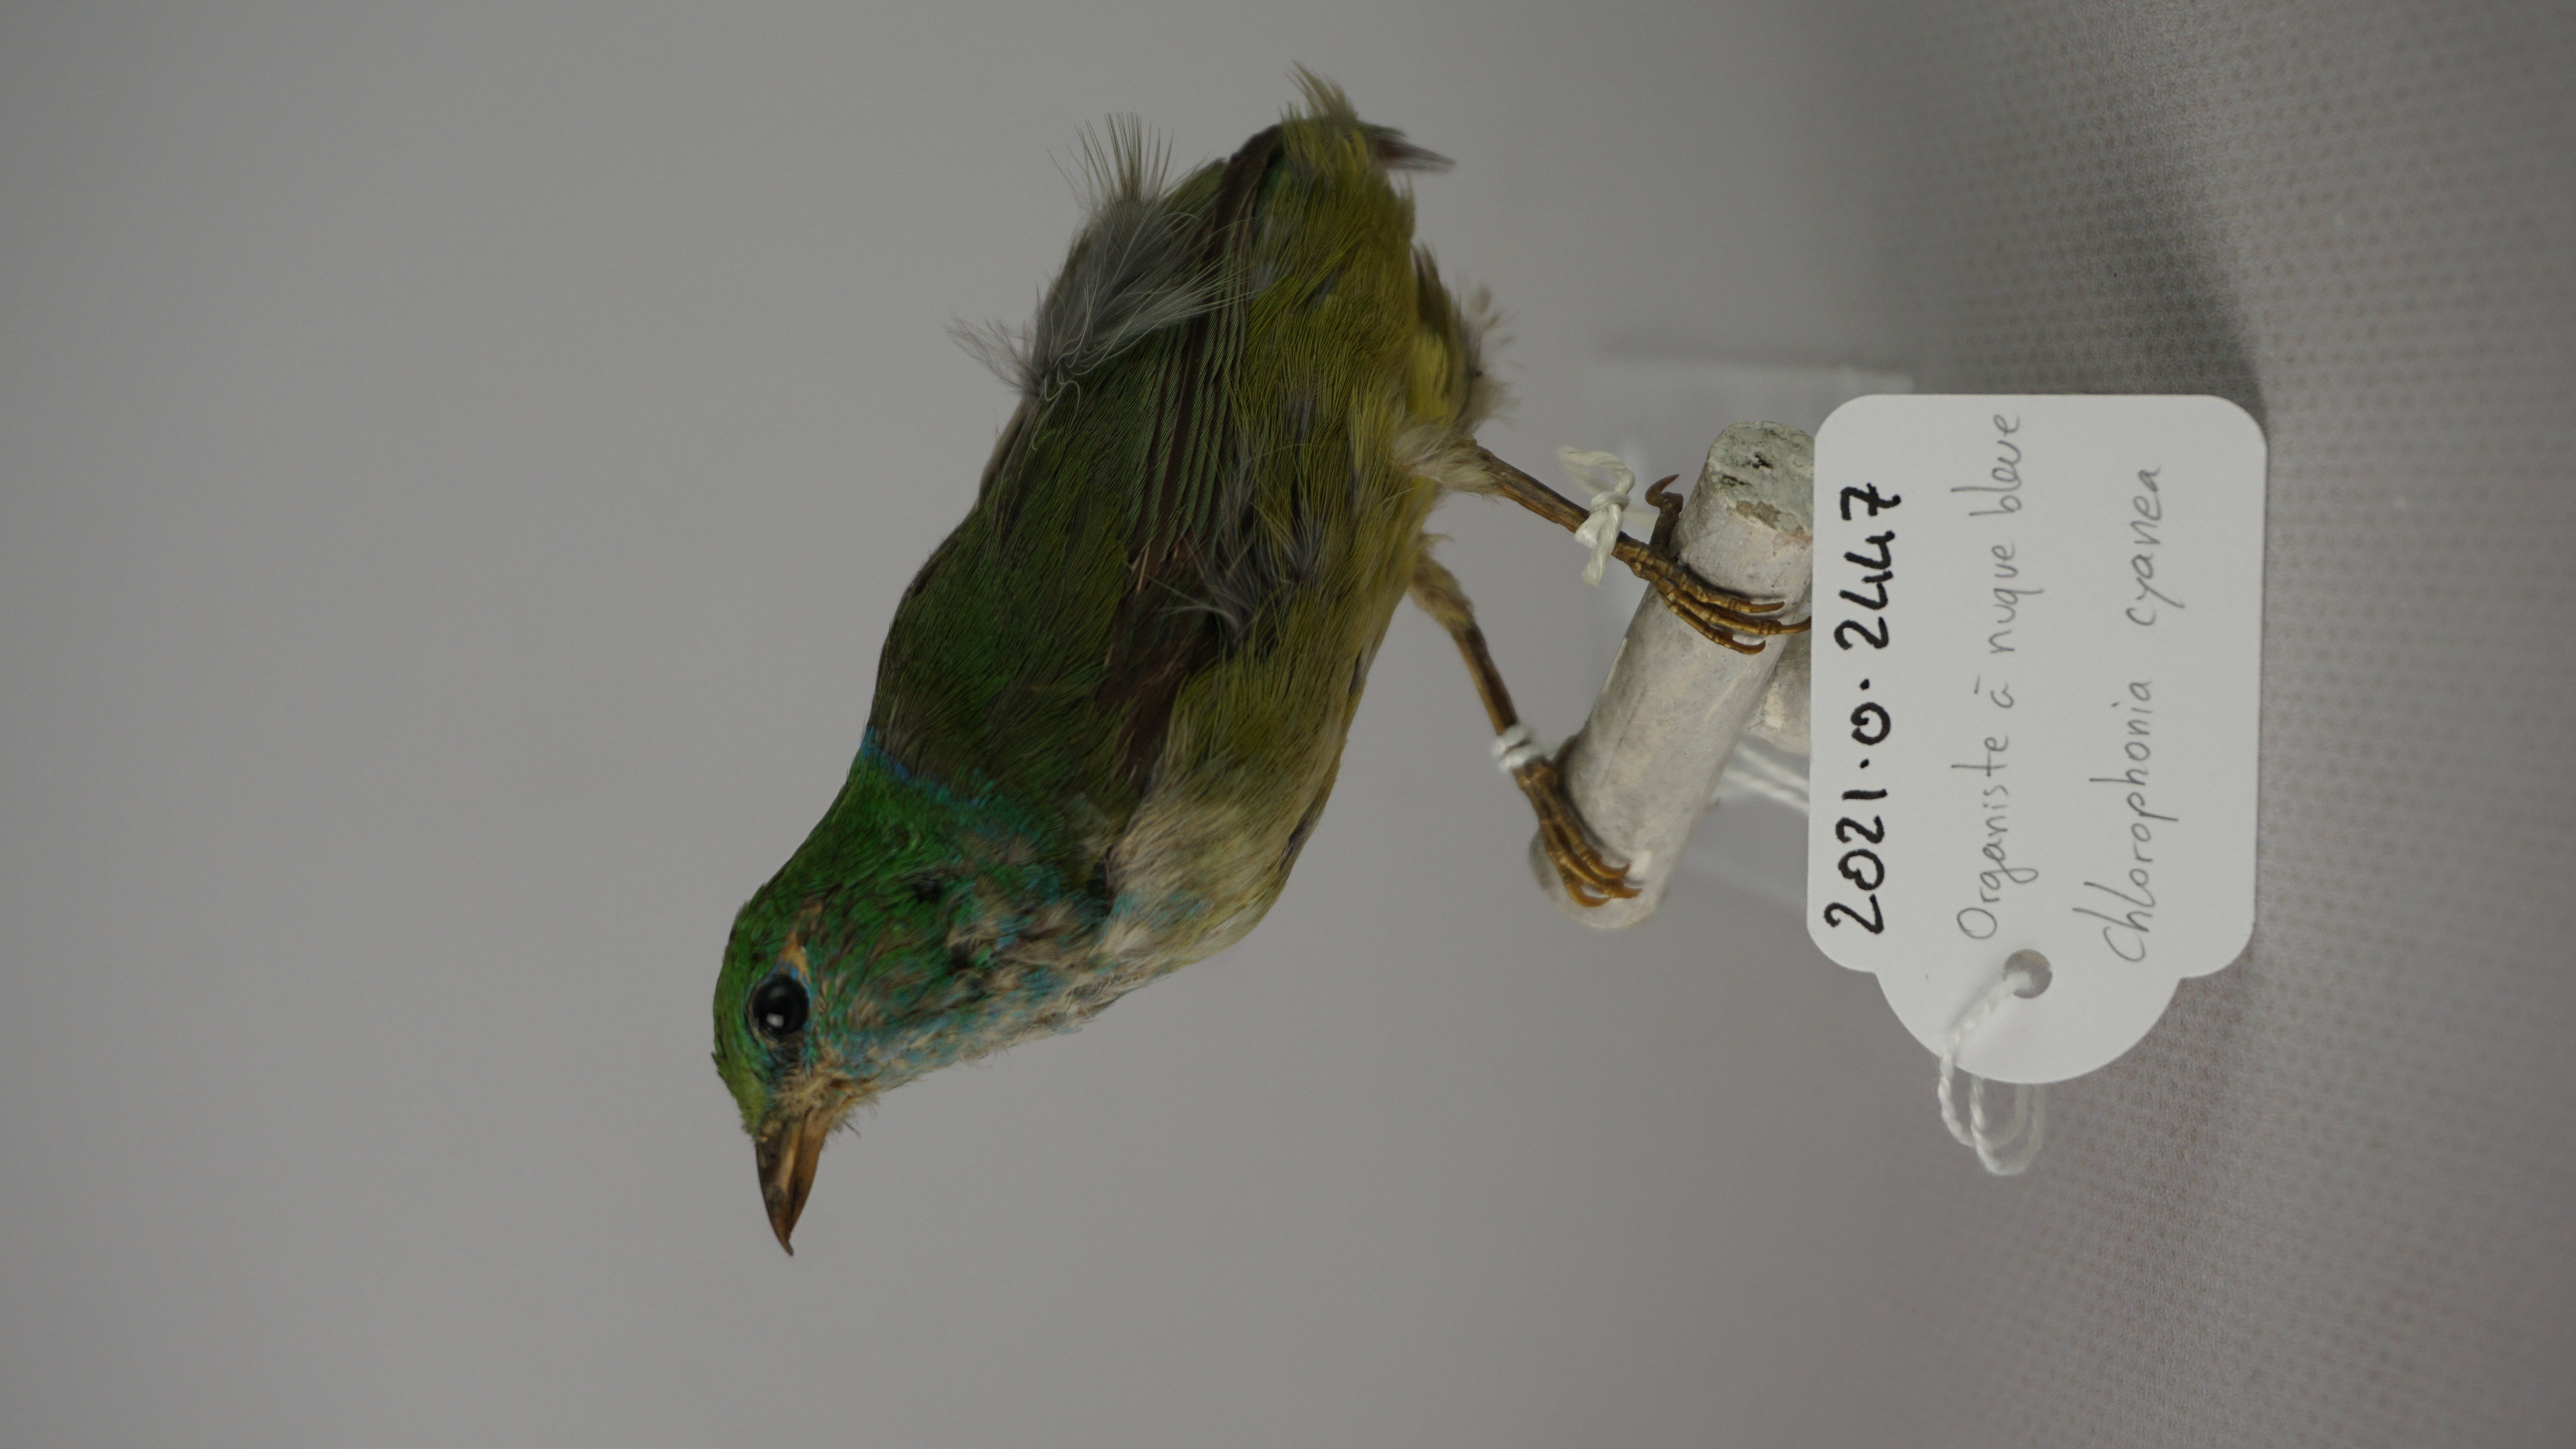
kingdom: Animalia
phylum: Chordata
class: Aves
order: Passeriformes
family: Fringillidae
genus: Chlorophonia
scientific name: Chlorophonia cyanea
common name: Blue-naped chlorophonia
